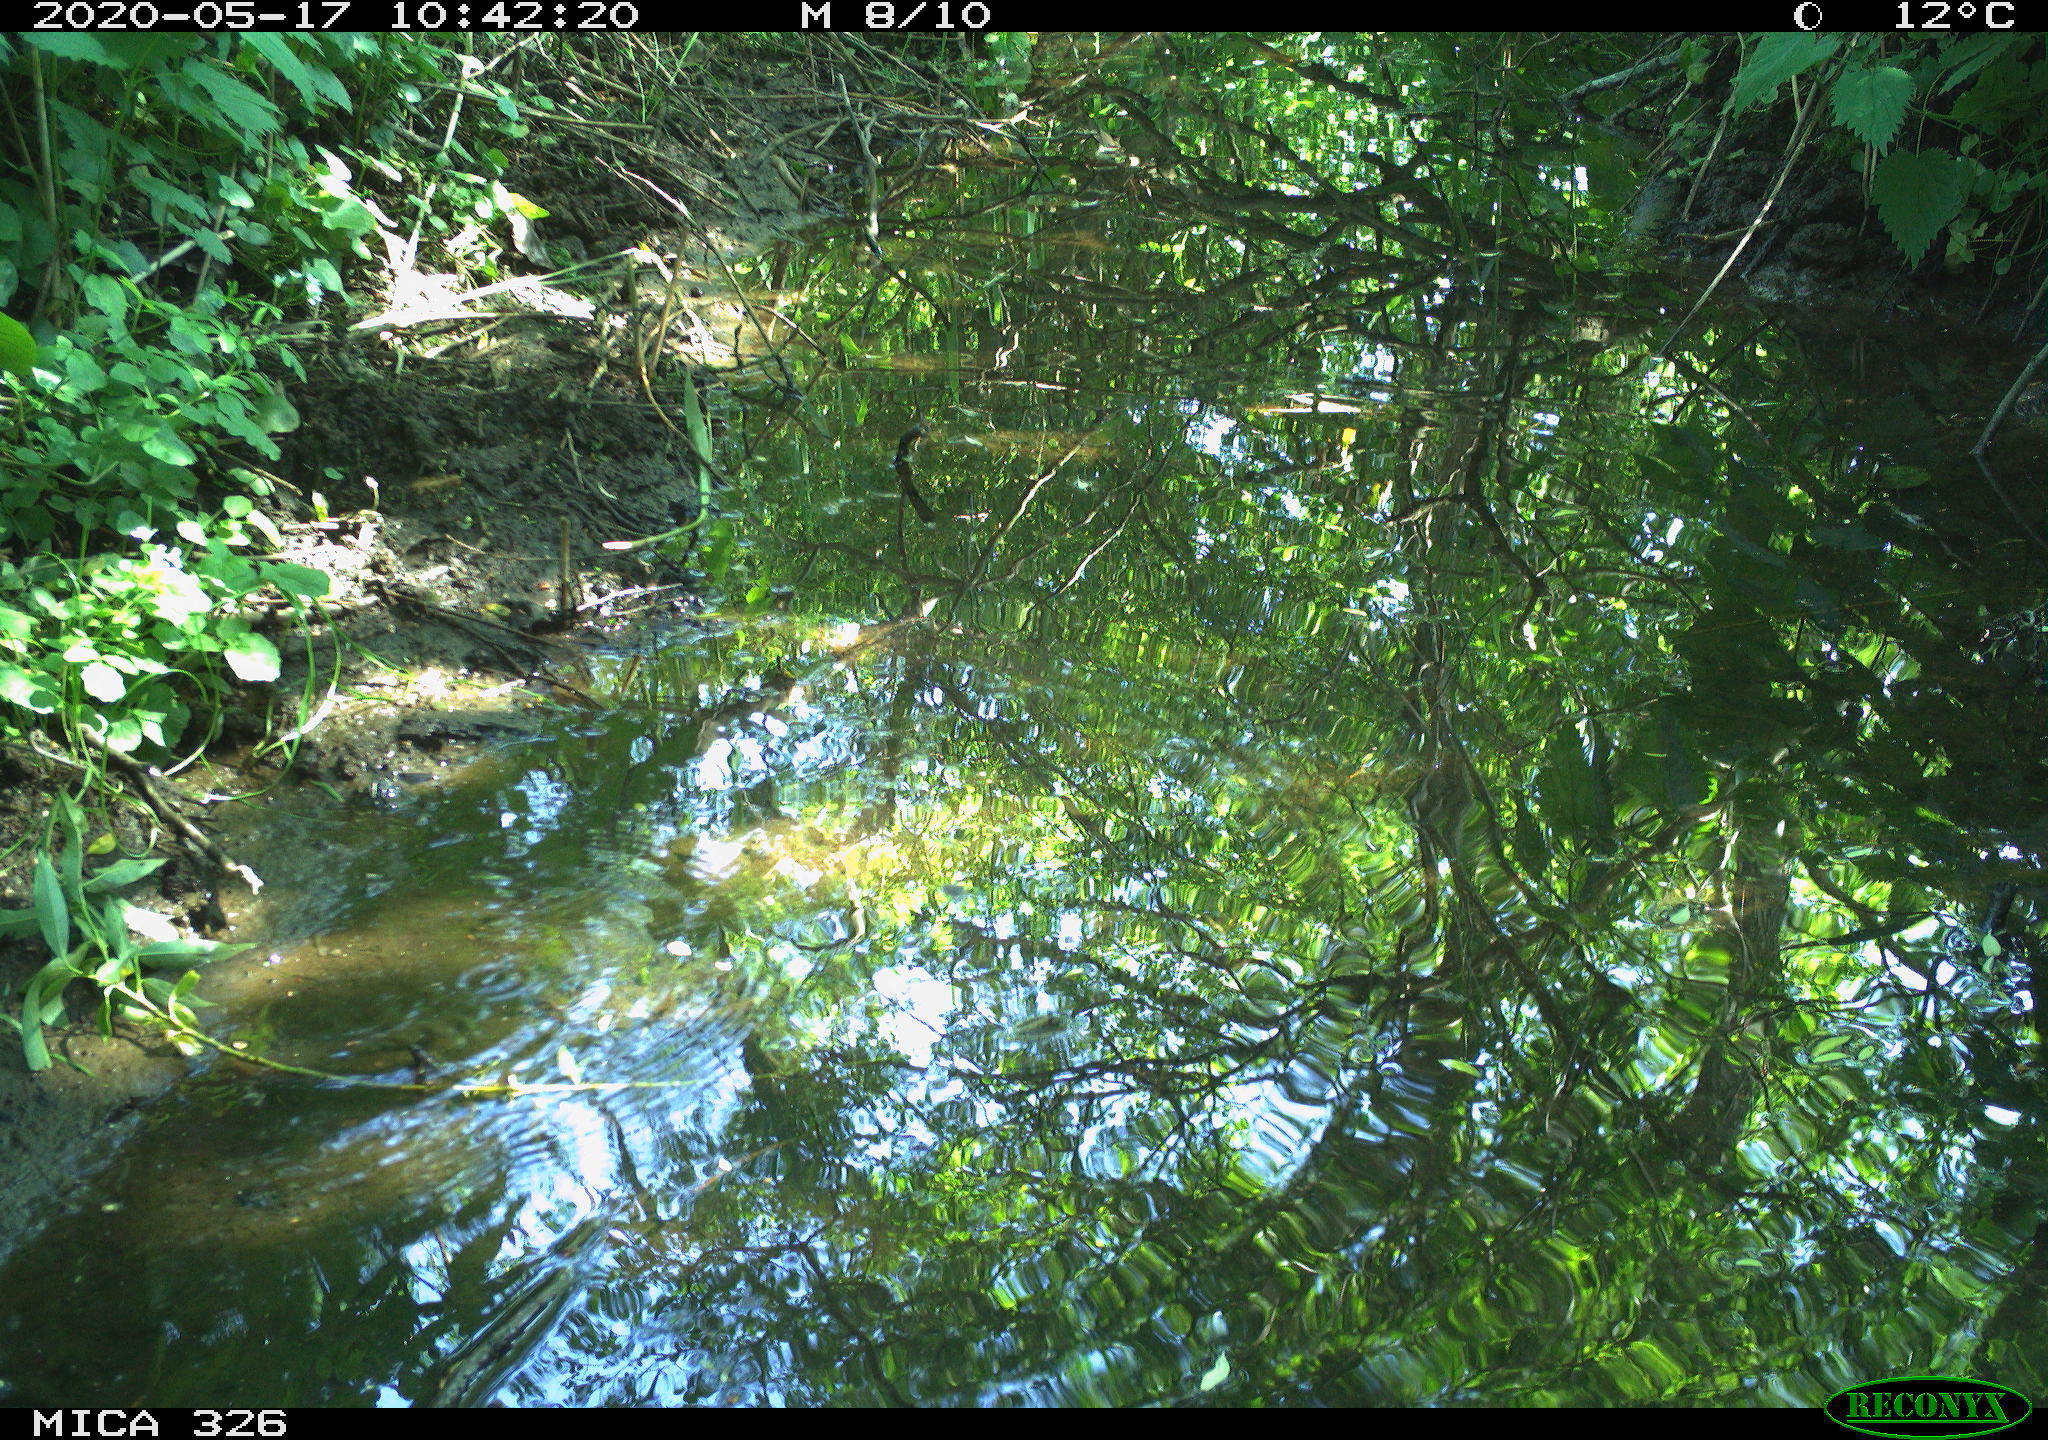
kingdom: Animalia
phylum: Chordata
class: Aves
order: Passeriformes
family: Turdidae
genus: Turdus
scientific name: Turdus merula
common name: Common blackbird
